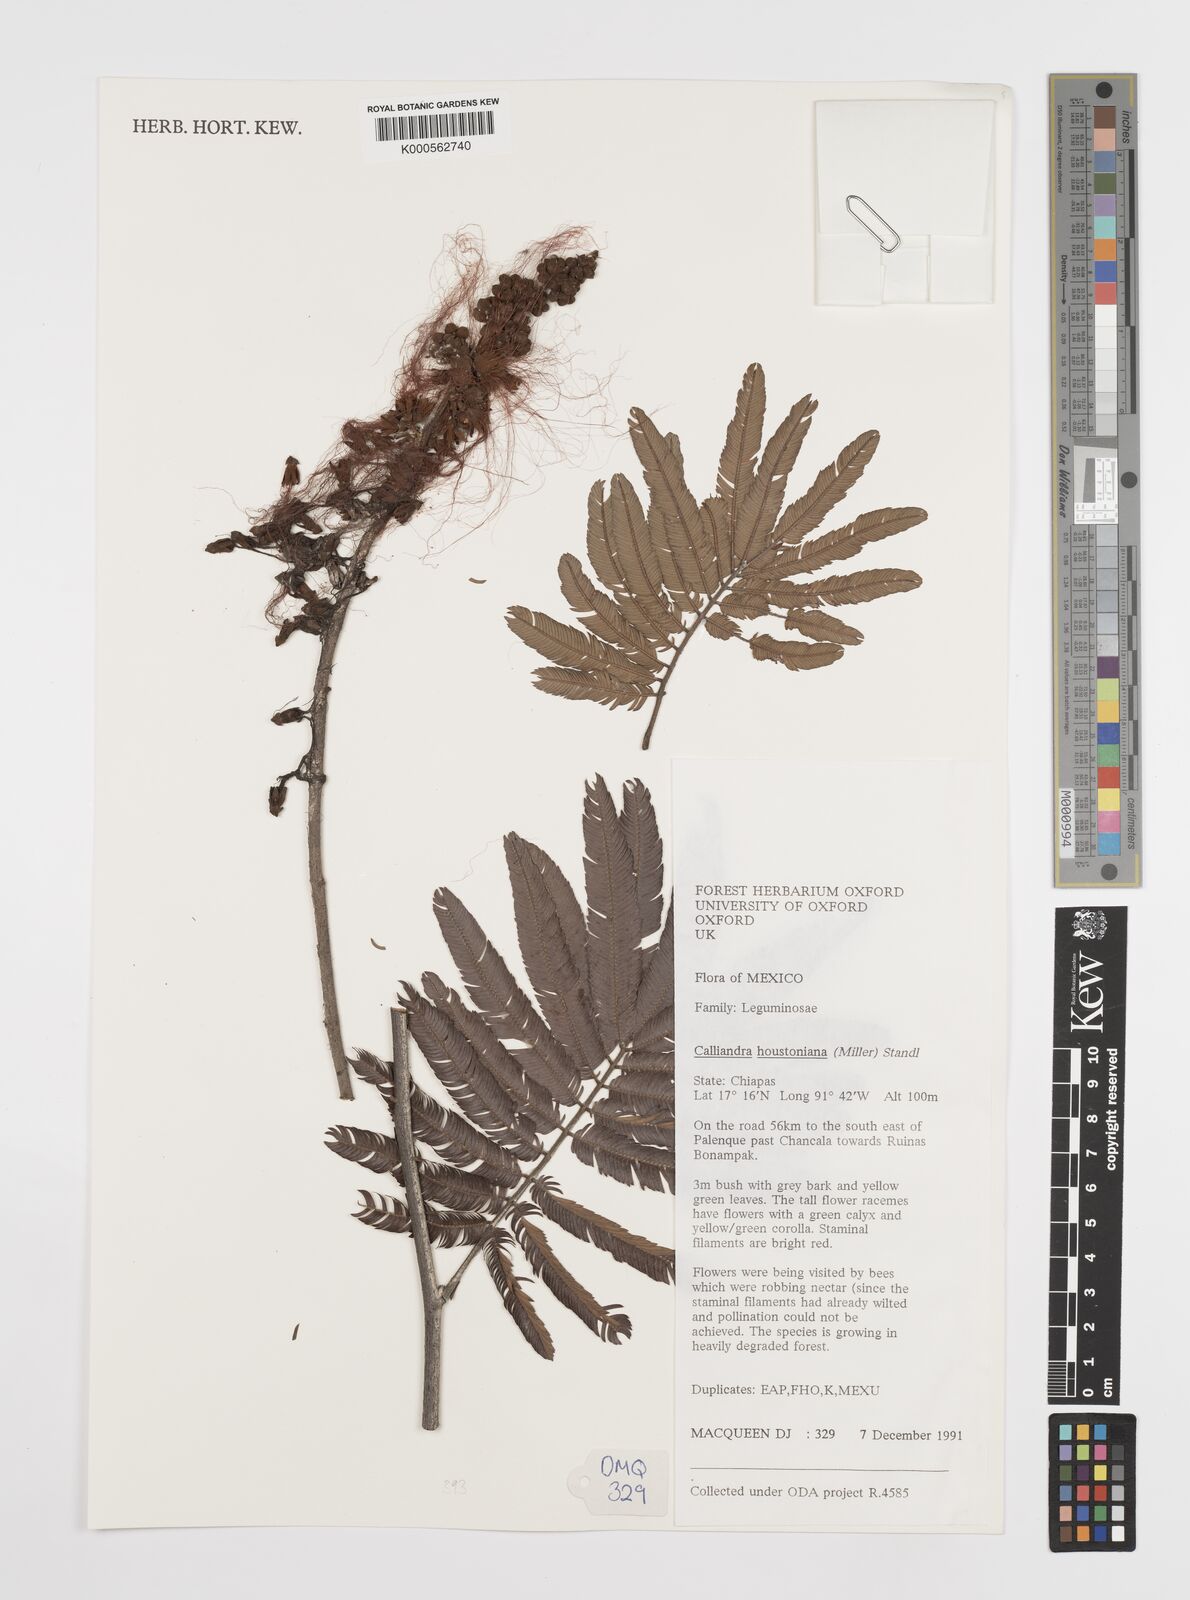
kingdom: Plantae
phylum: Tracheophyta
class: Magnoliopsida
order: Fabales
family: Fabaceae
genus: Calliandra
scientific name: Calliandra houstoniana
